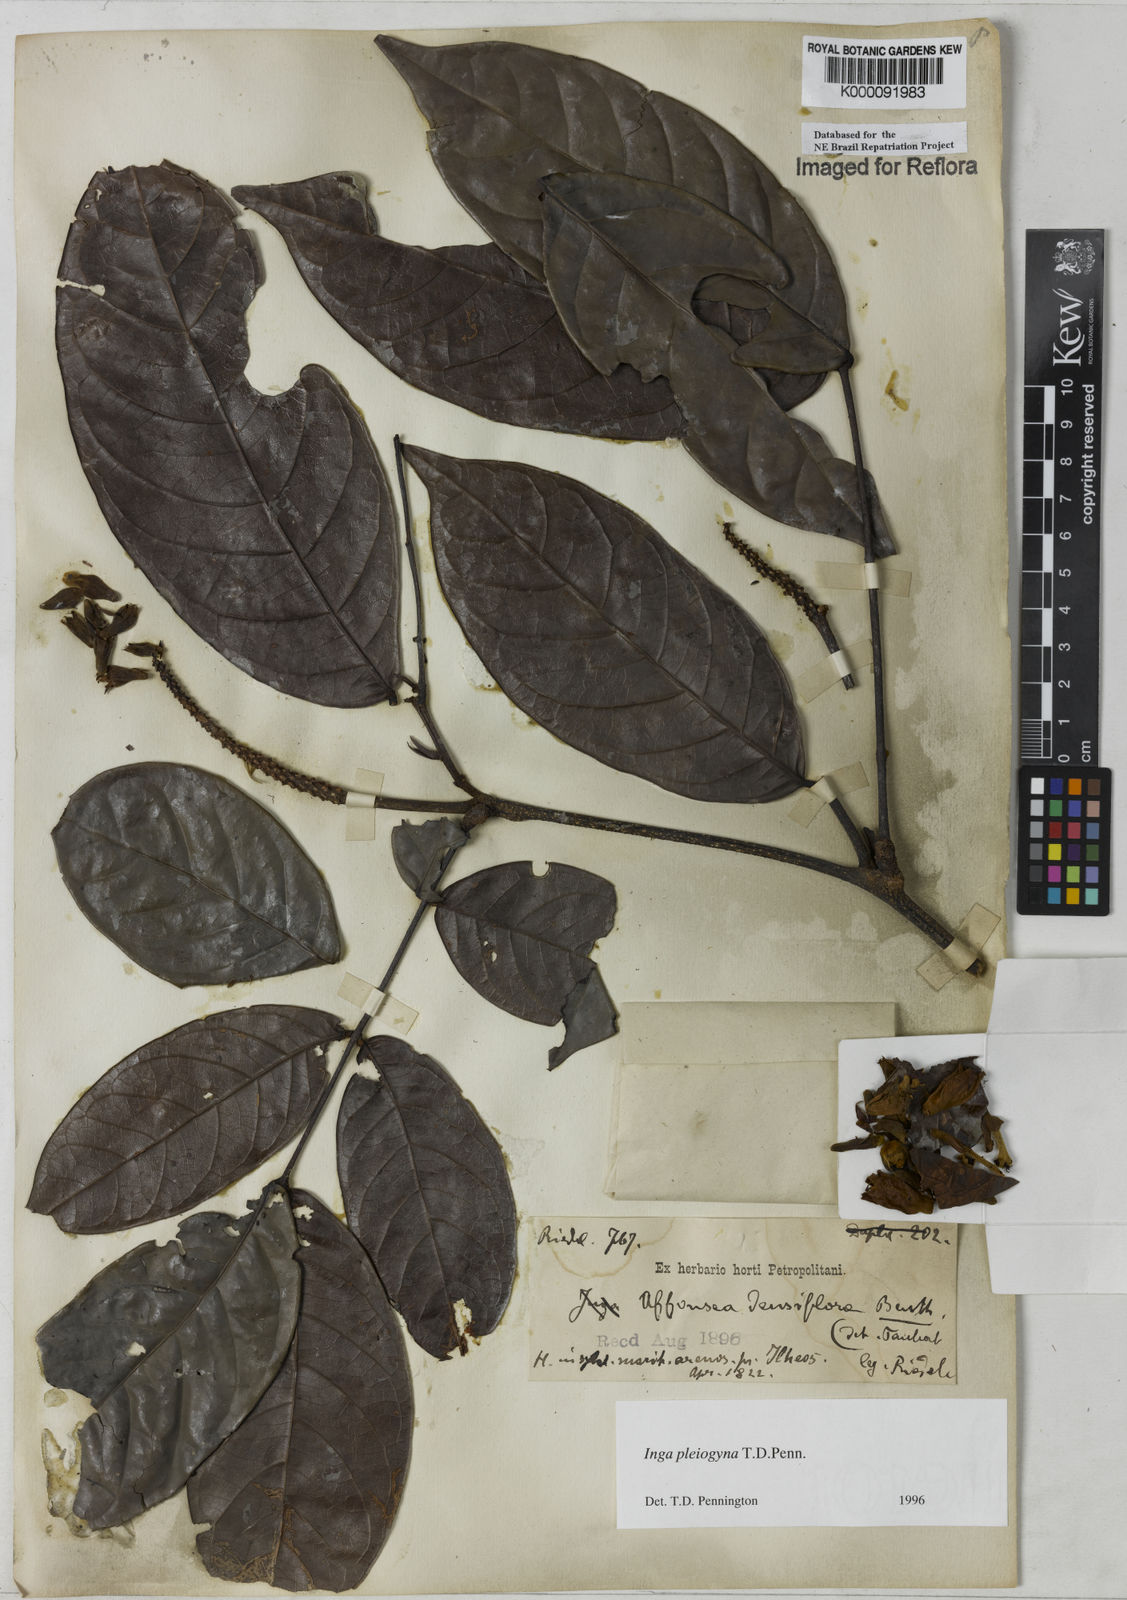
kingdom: Plantae
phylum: Tracheophyta
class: Magnoliopsida
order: Fabales
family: Fabaceae
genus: Inga
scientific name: Inga pleiogyna
